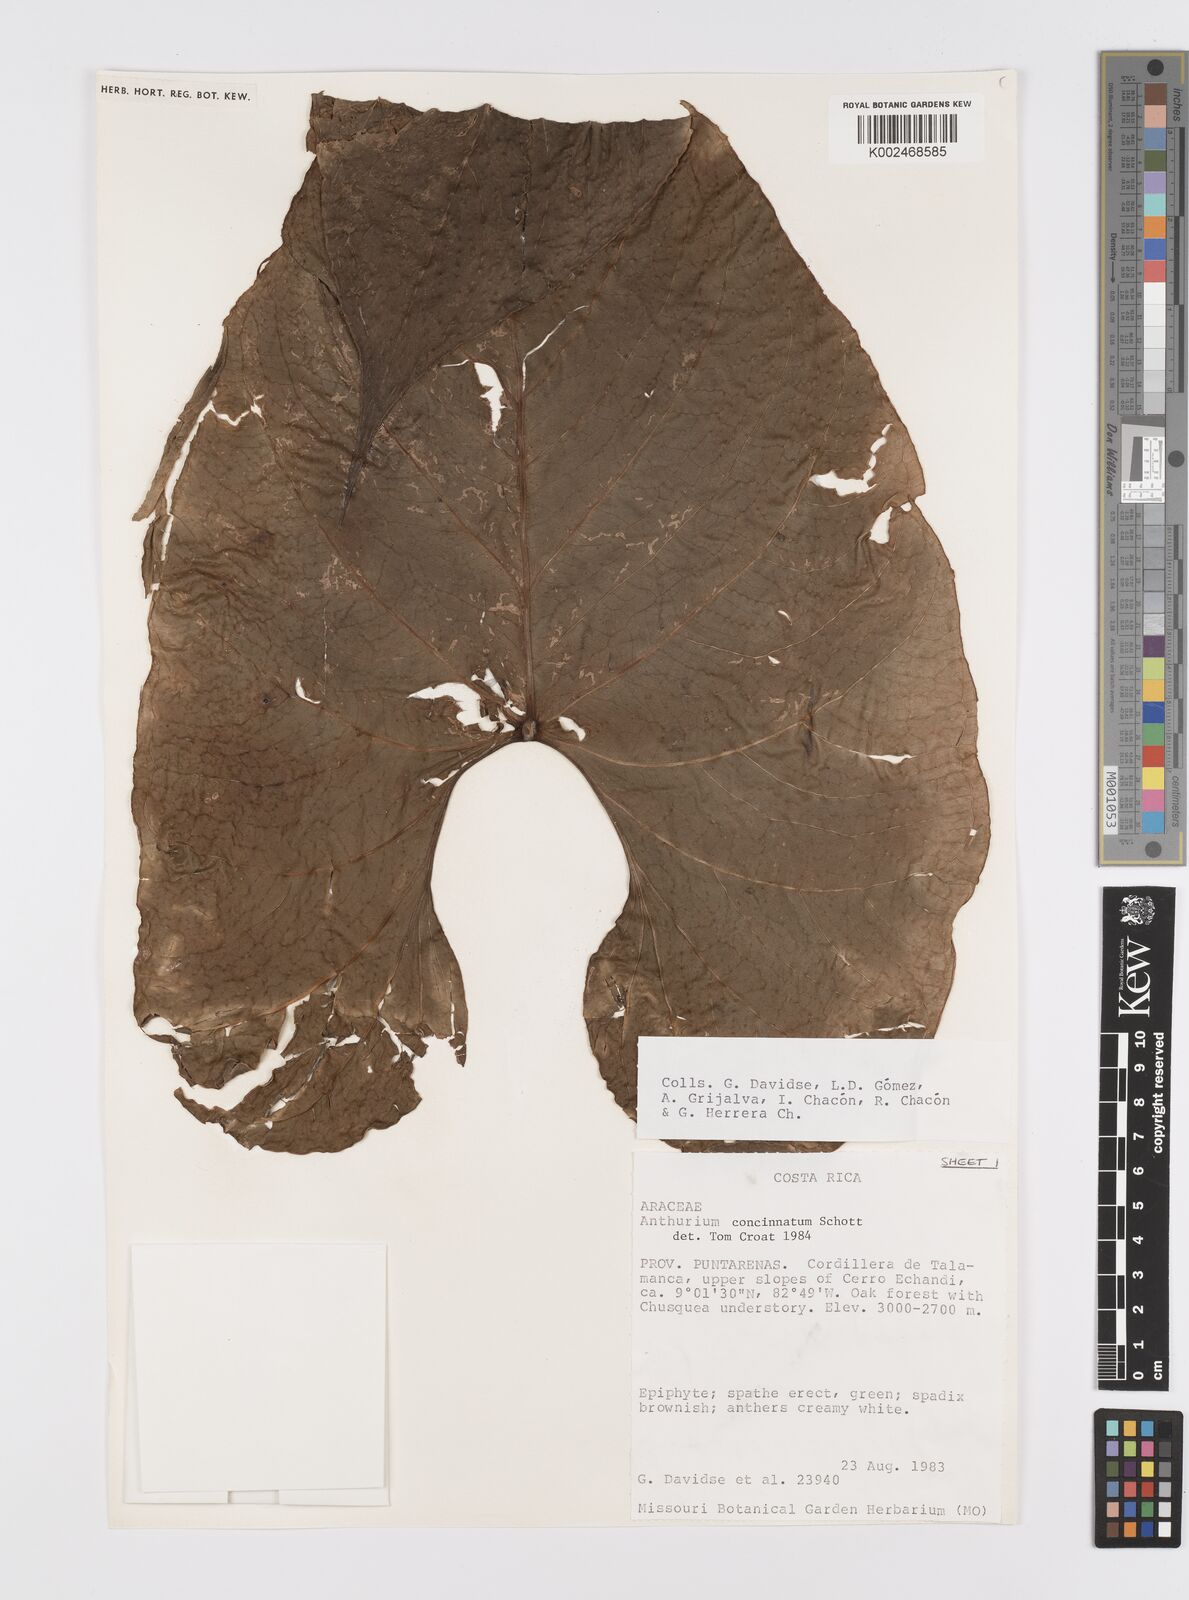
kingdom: Plantae
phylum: Tracheophyta
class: Liliopsida
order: Alismatales
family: Araceae
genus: Anthurium
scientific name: Anthurium concinnatum
